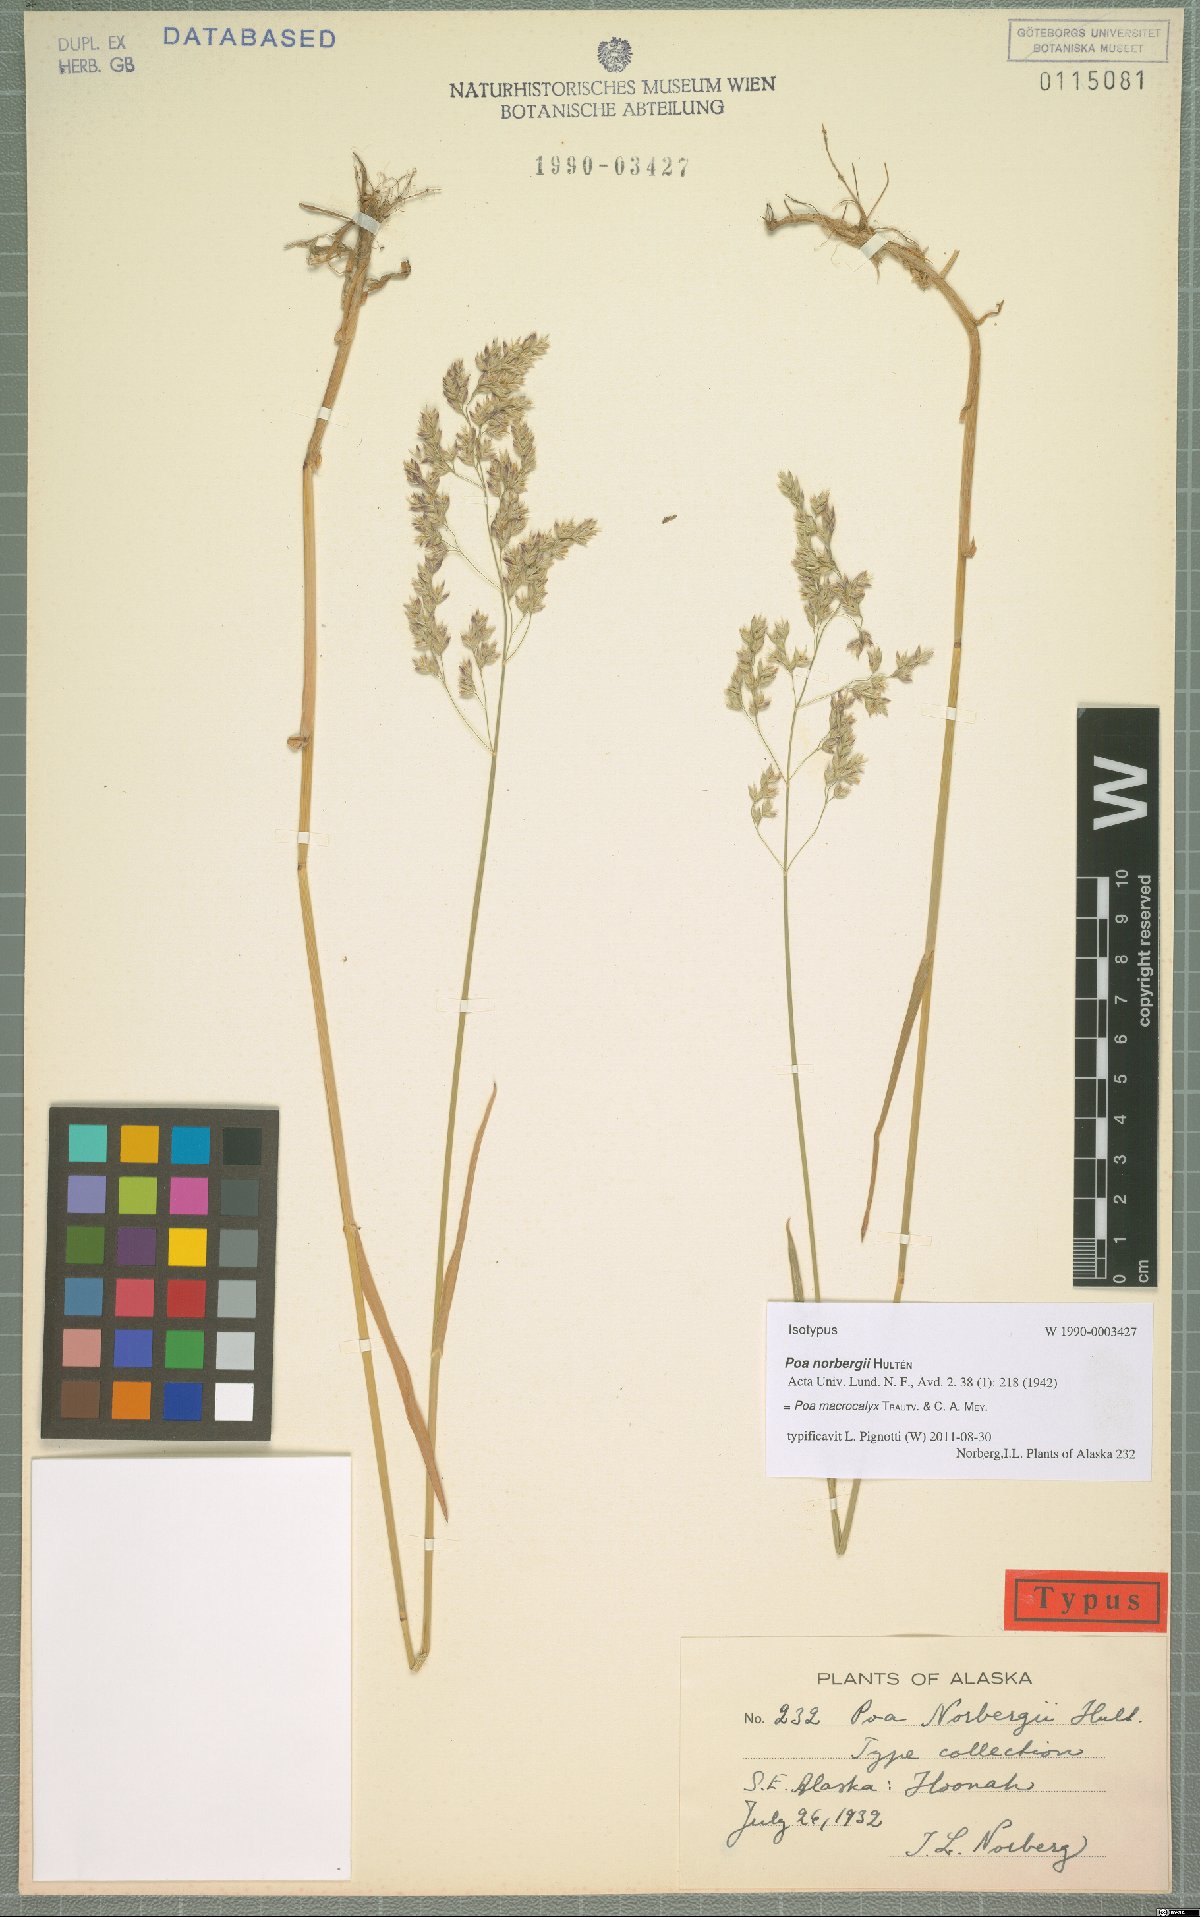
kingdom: Plantae
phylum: Tracheophyta
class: Liliopsida
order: Poales
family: Poaceae
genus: Poa
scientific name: Poa macrocalyx
